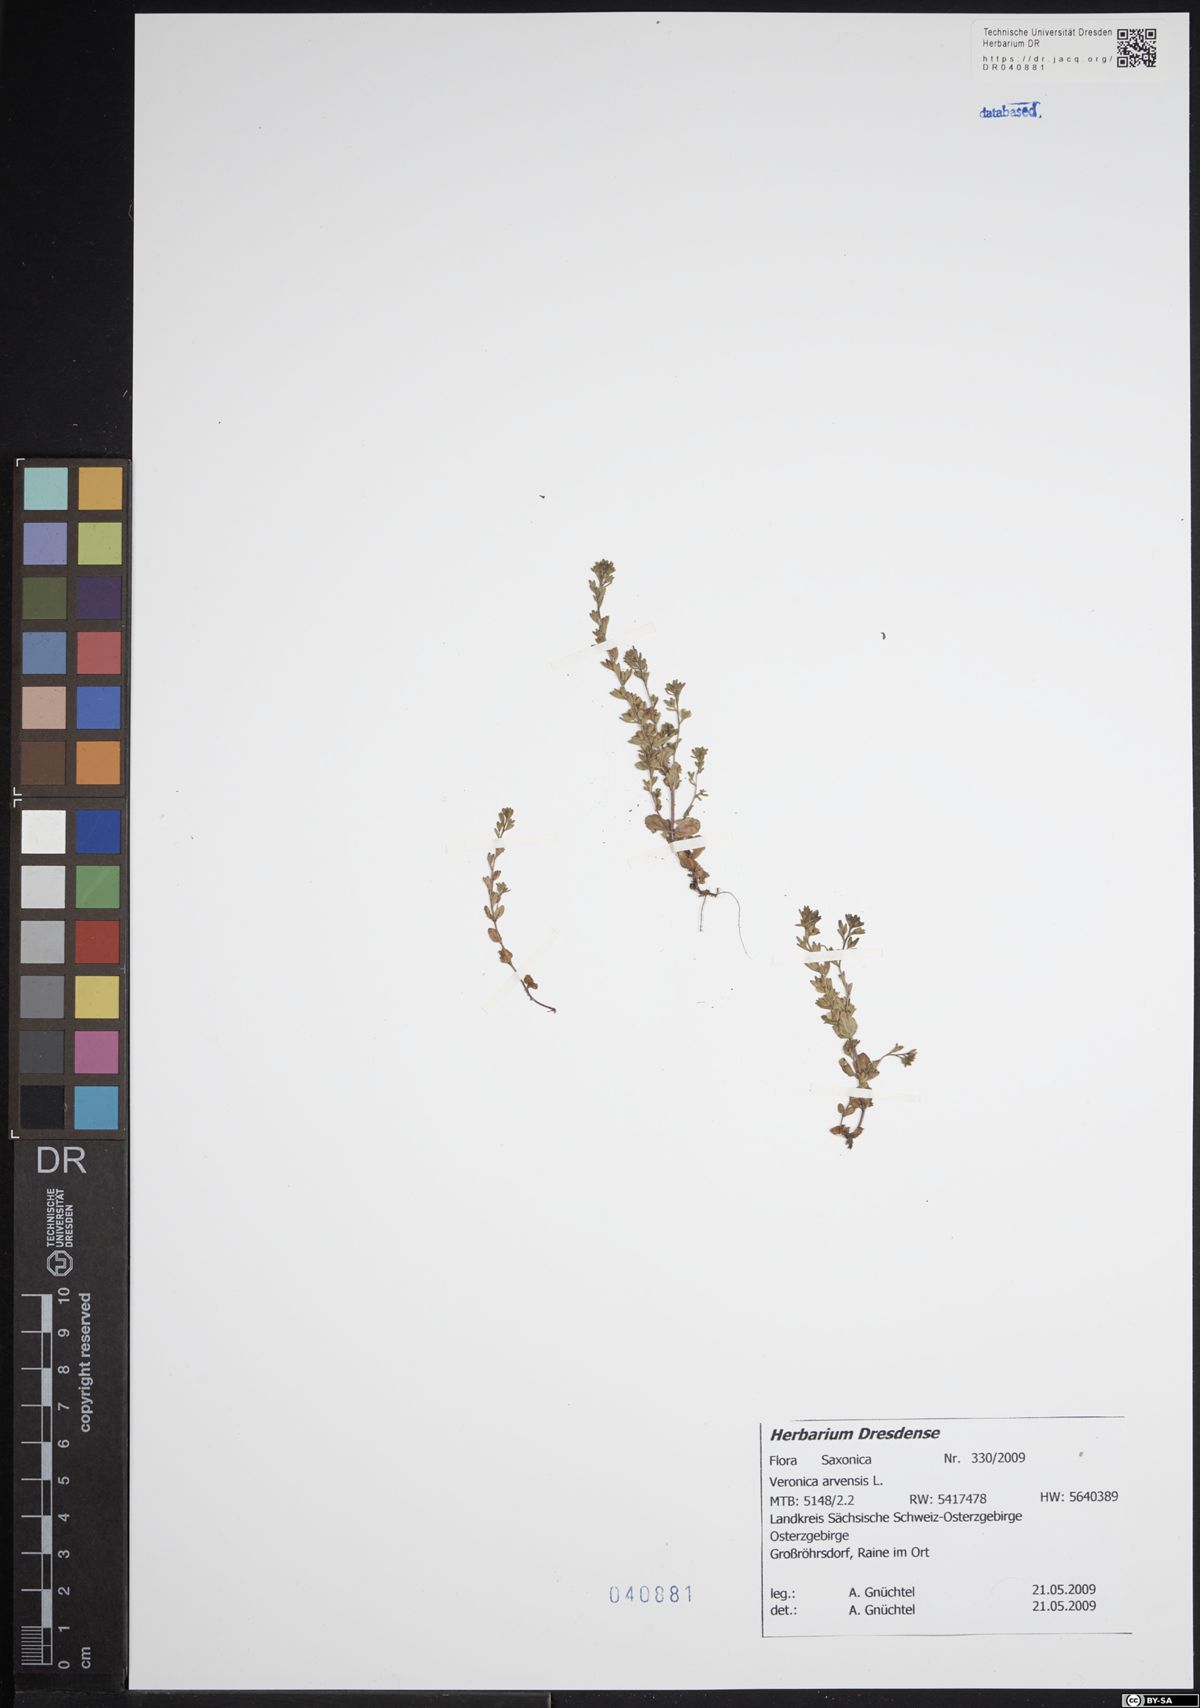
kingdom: Plantae
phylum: Tracheophyta
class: Magnoliopsida
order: Lamiales
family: Plantaginaceae
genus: Veronica
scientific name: Veronica arvensis
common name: Corn speedwell
